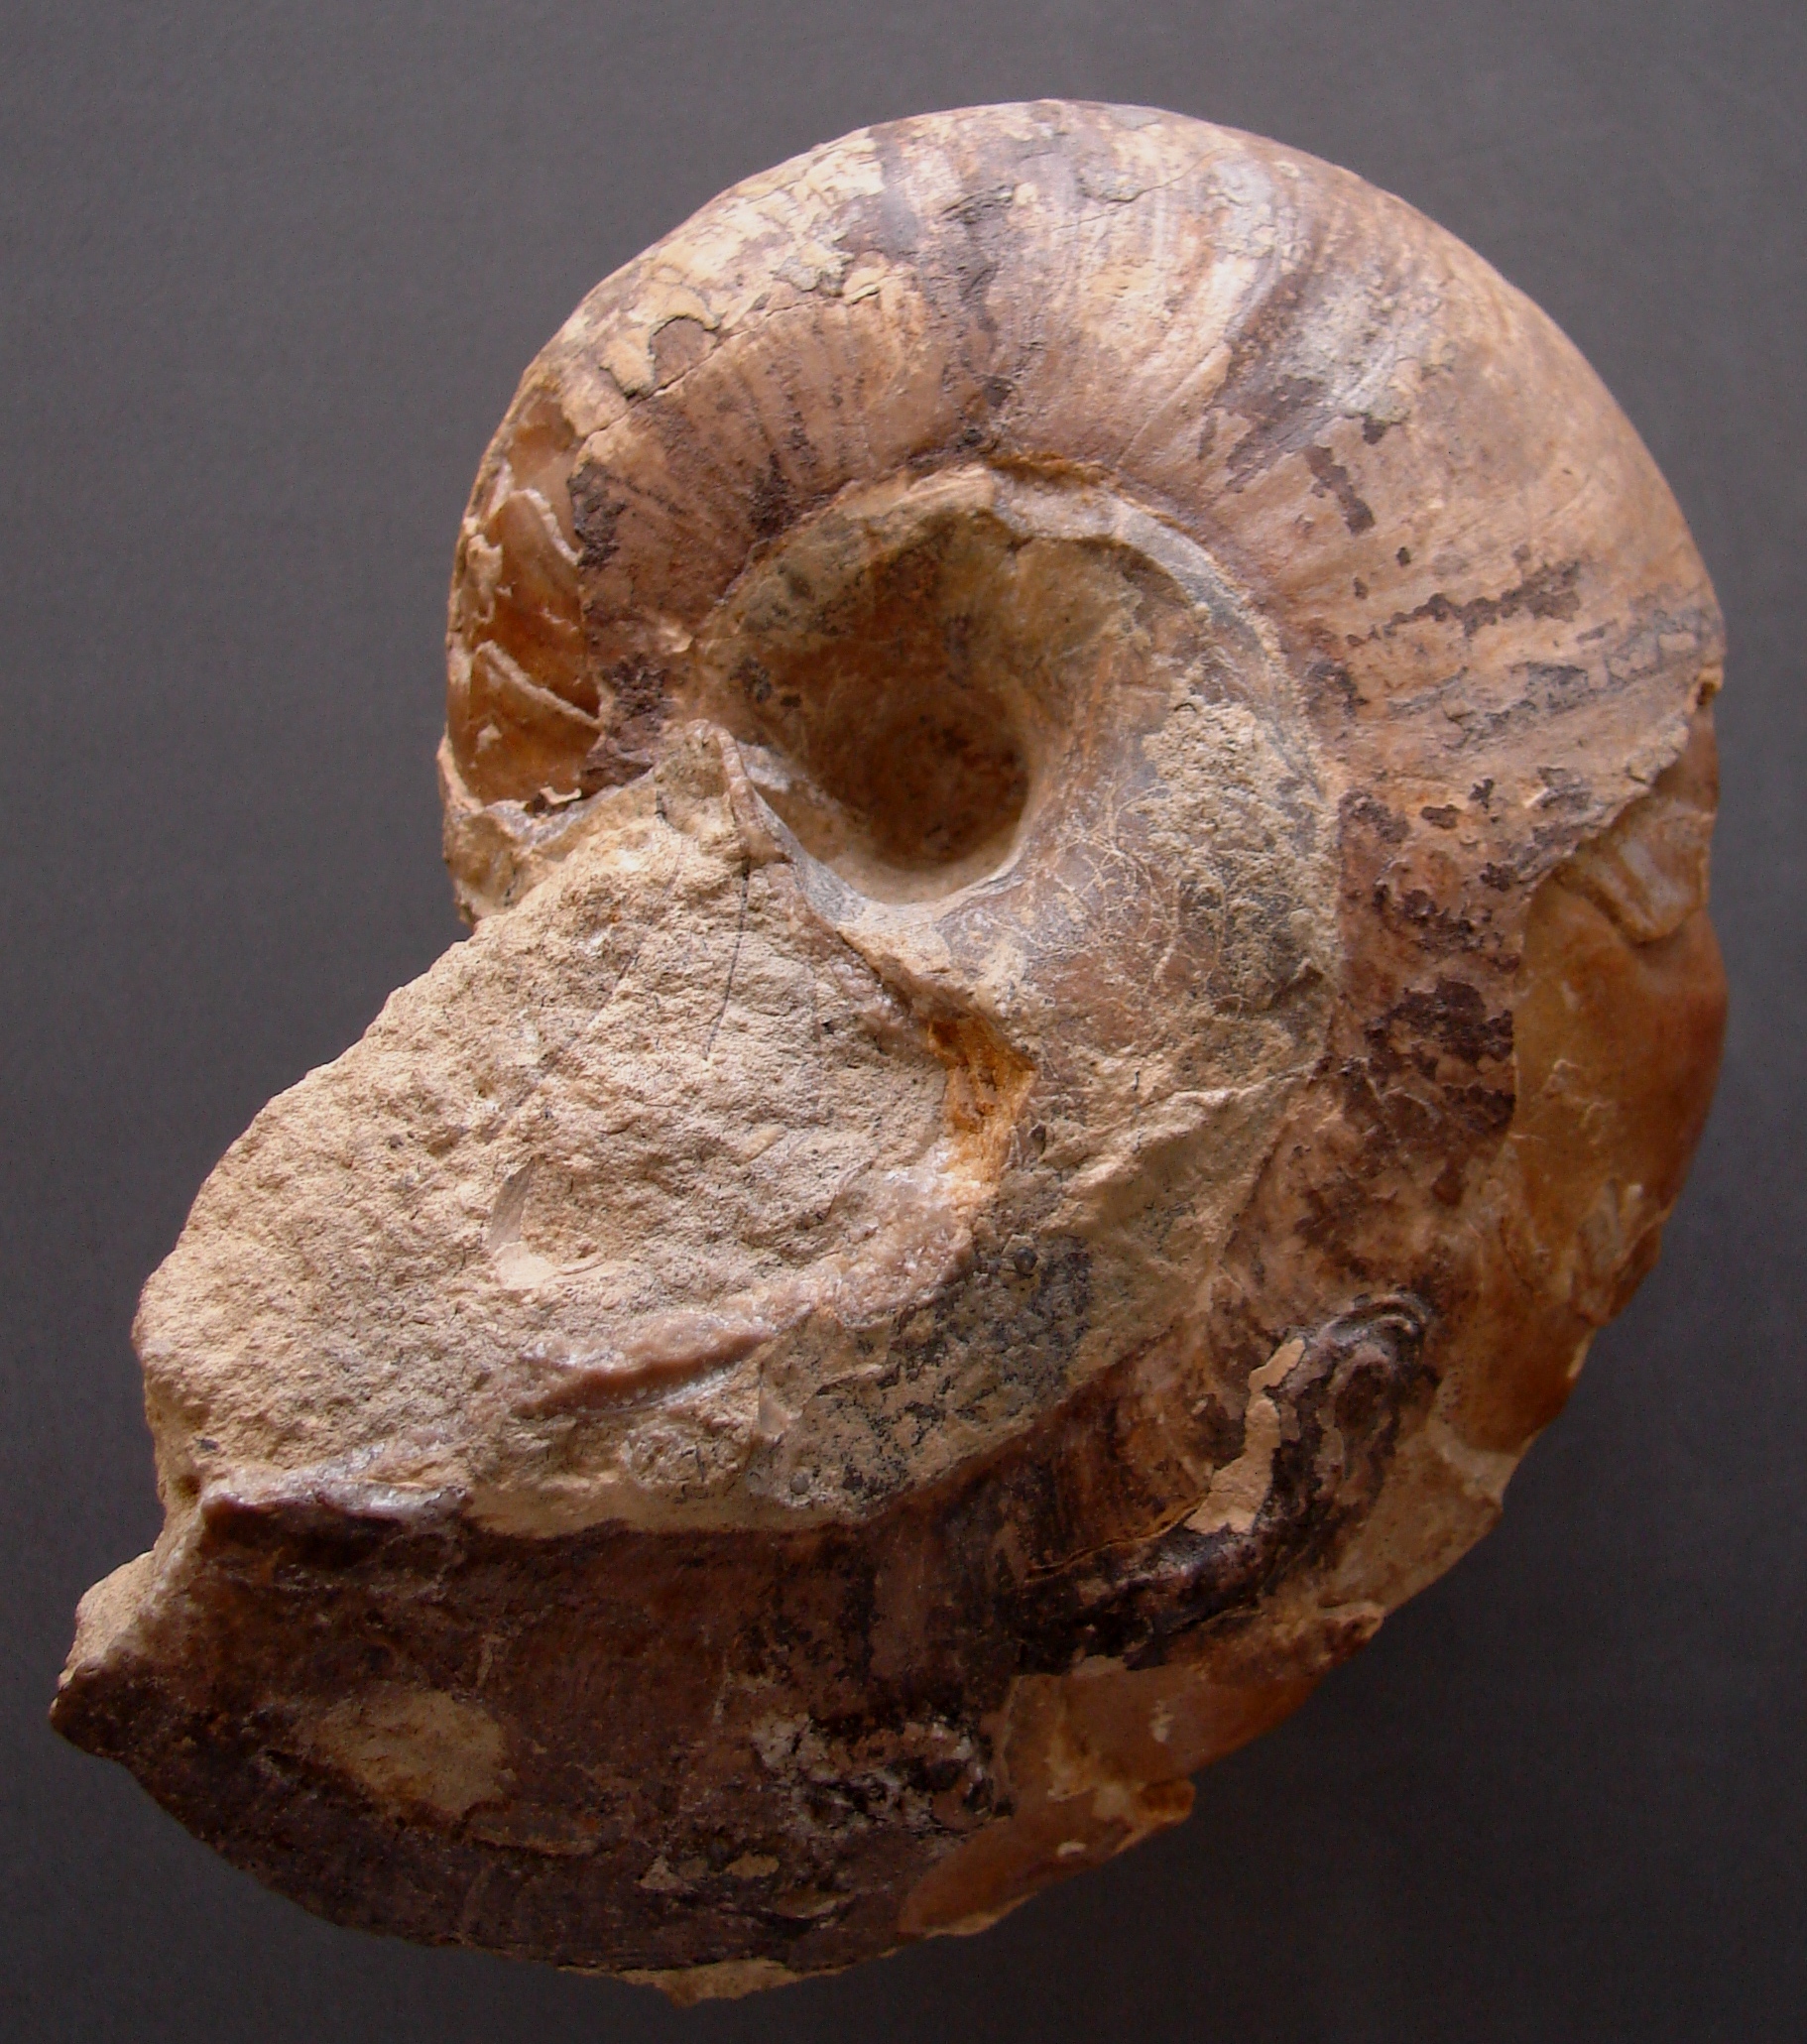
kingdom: Animalia
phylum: Mollusca
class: Cephalopoda
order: Nautilida
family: Nautilidae
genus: Cenoceras
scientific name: Cenoceras
